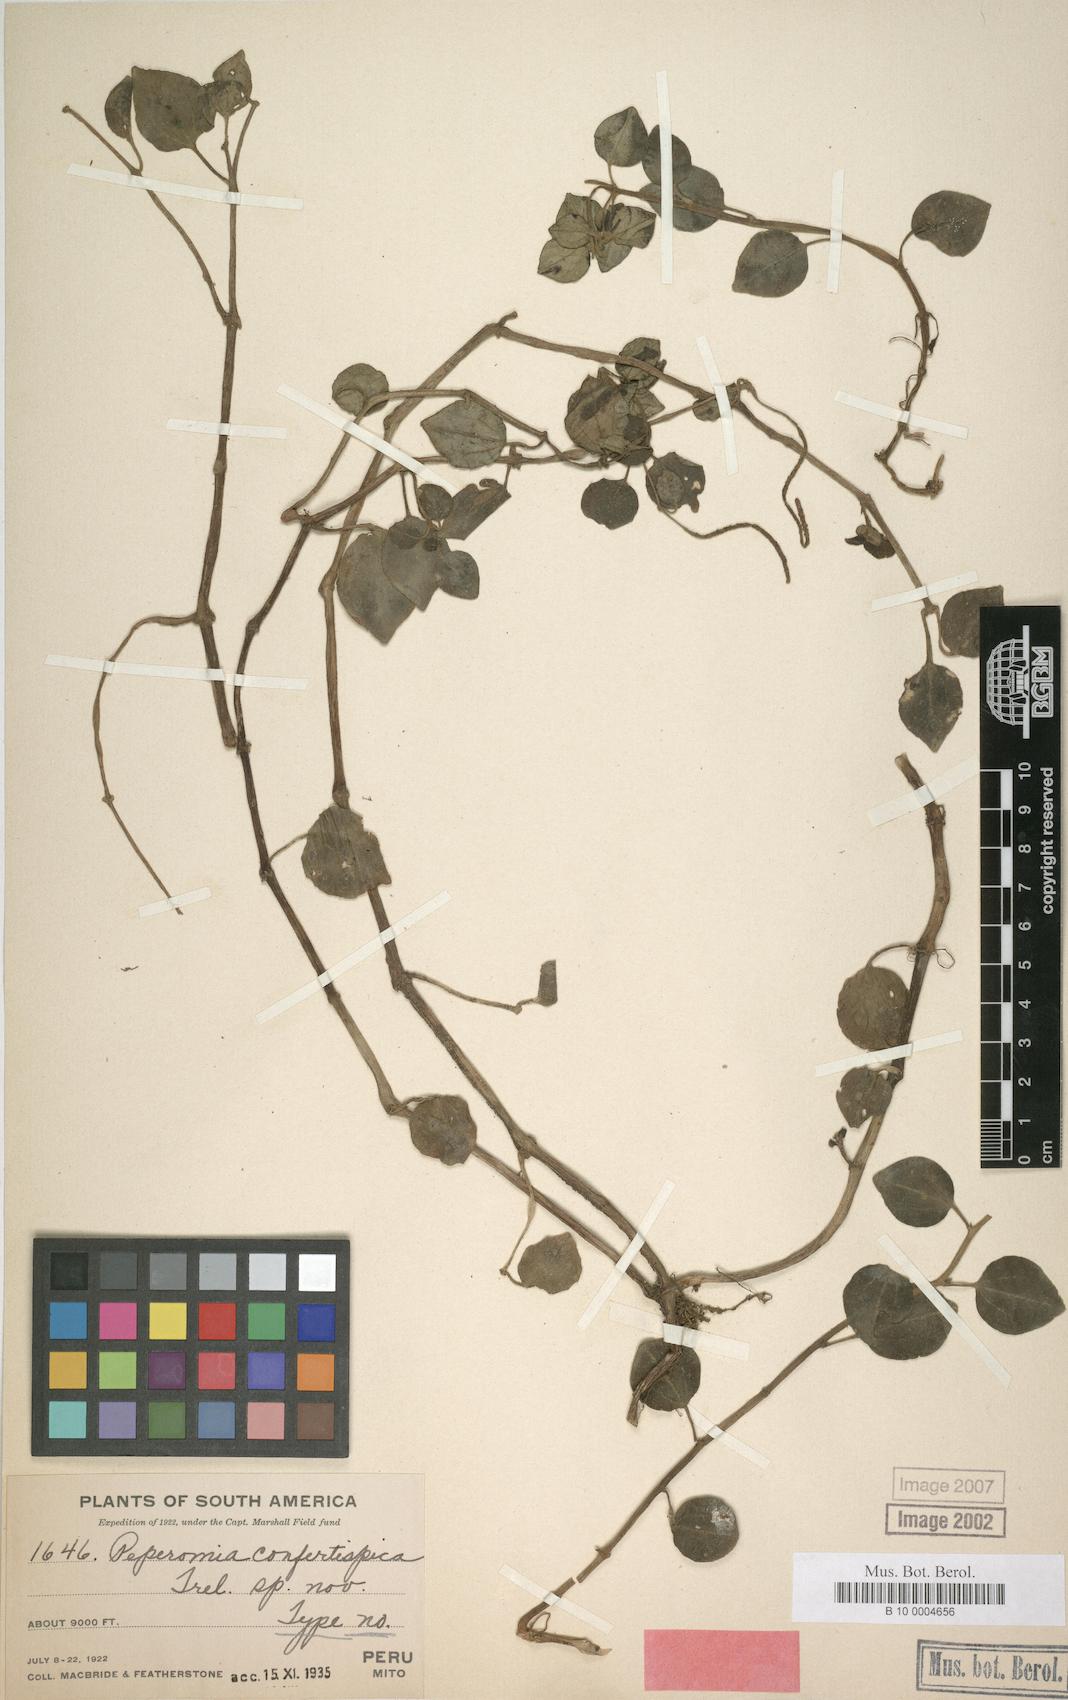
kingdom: Plantae
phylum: Tracheophyta
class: Magnoliopsida
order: Piperales
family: Piperaceae
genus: Peperomia
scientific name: Peperomia confertispica
